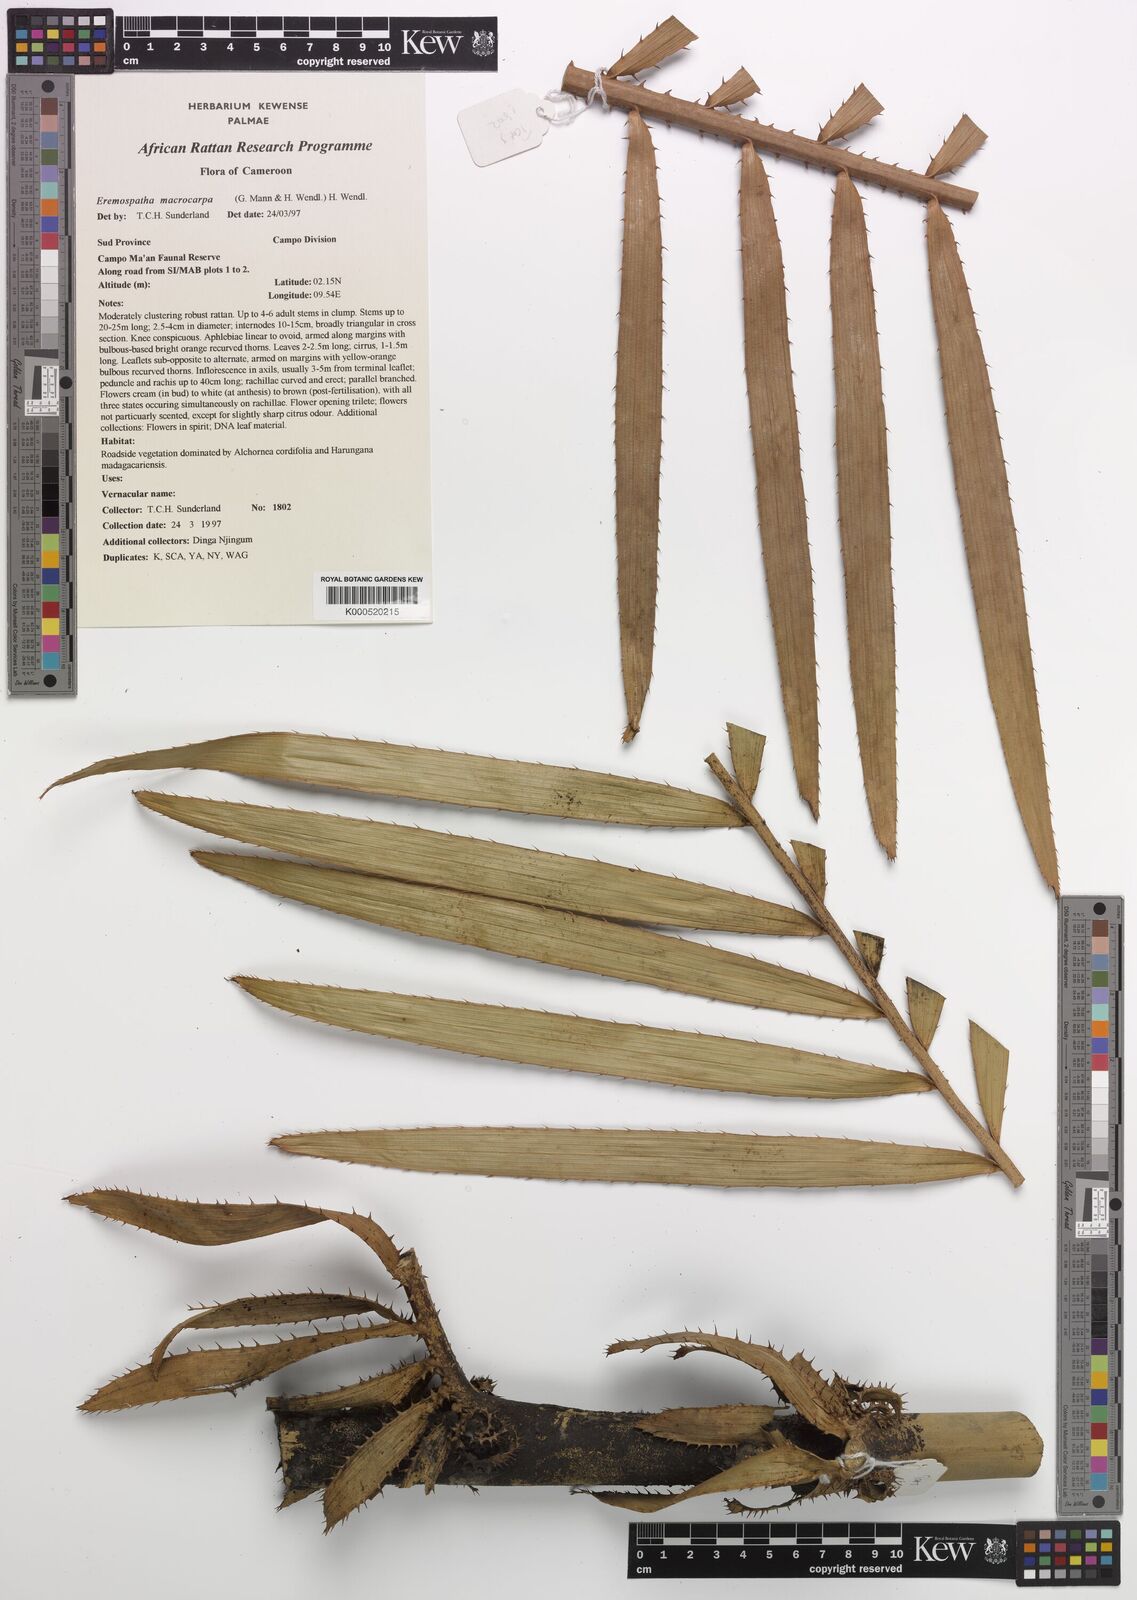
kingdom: Plantae
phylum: Tracheophyta
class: Liliopsida
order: Arecales
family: Arecaceae
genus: Eremospatha
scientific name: Eremospatha
